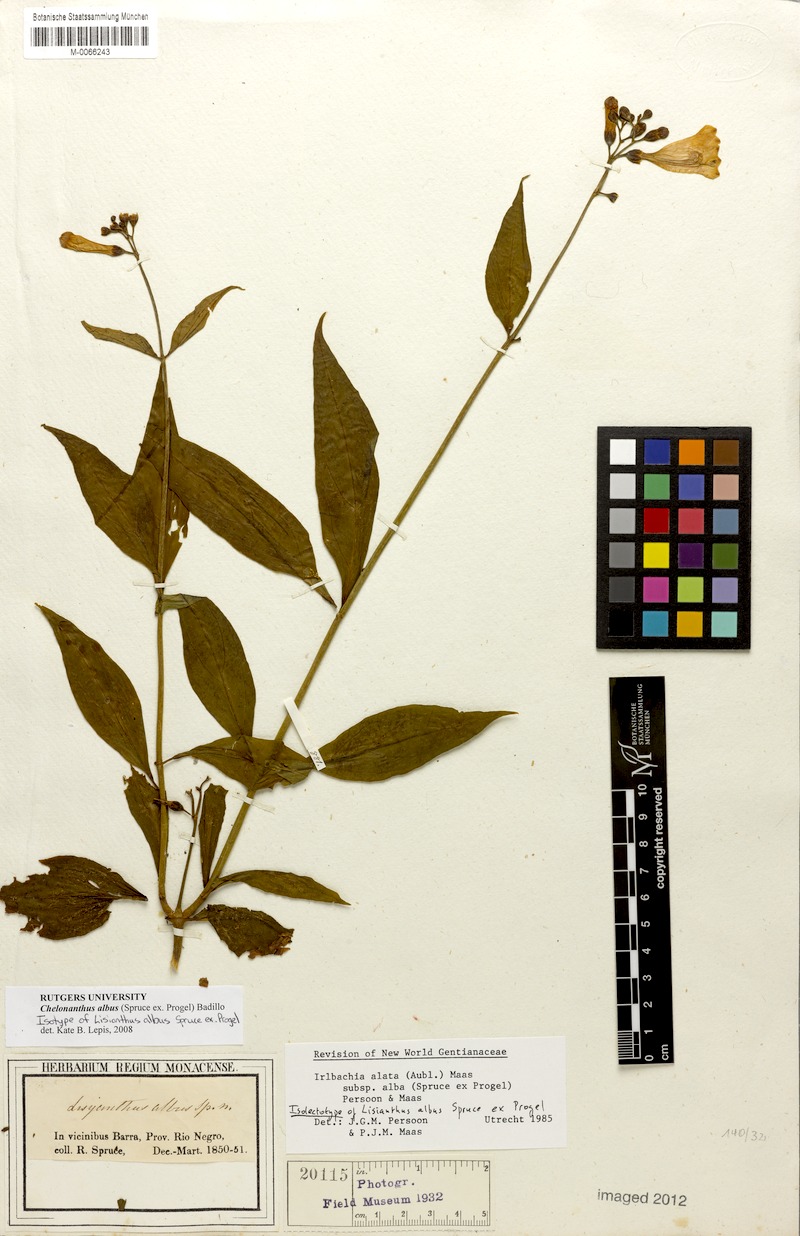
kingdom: Plantae
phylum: Tracheophyta
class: Magnoliopsida
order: Gentianales
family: Gentianaceae
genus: Chelonanthus
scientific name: Chelonanthus albus
